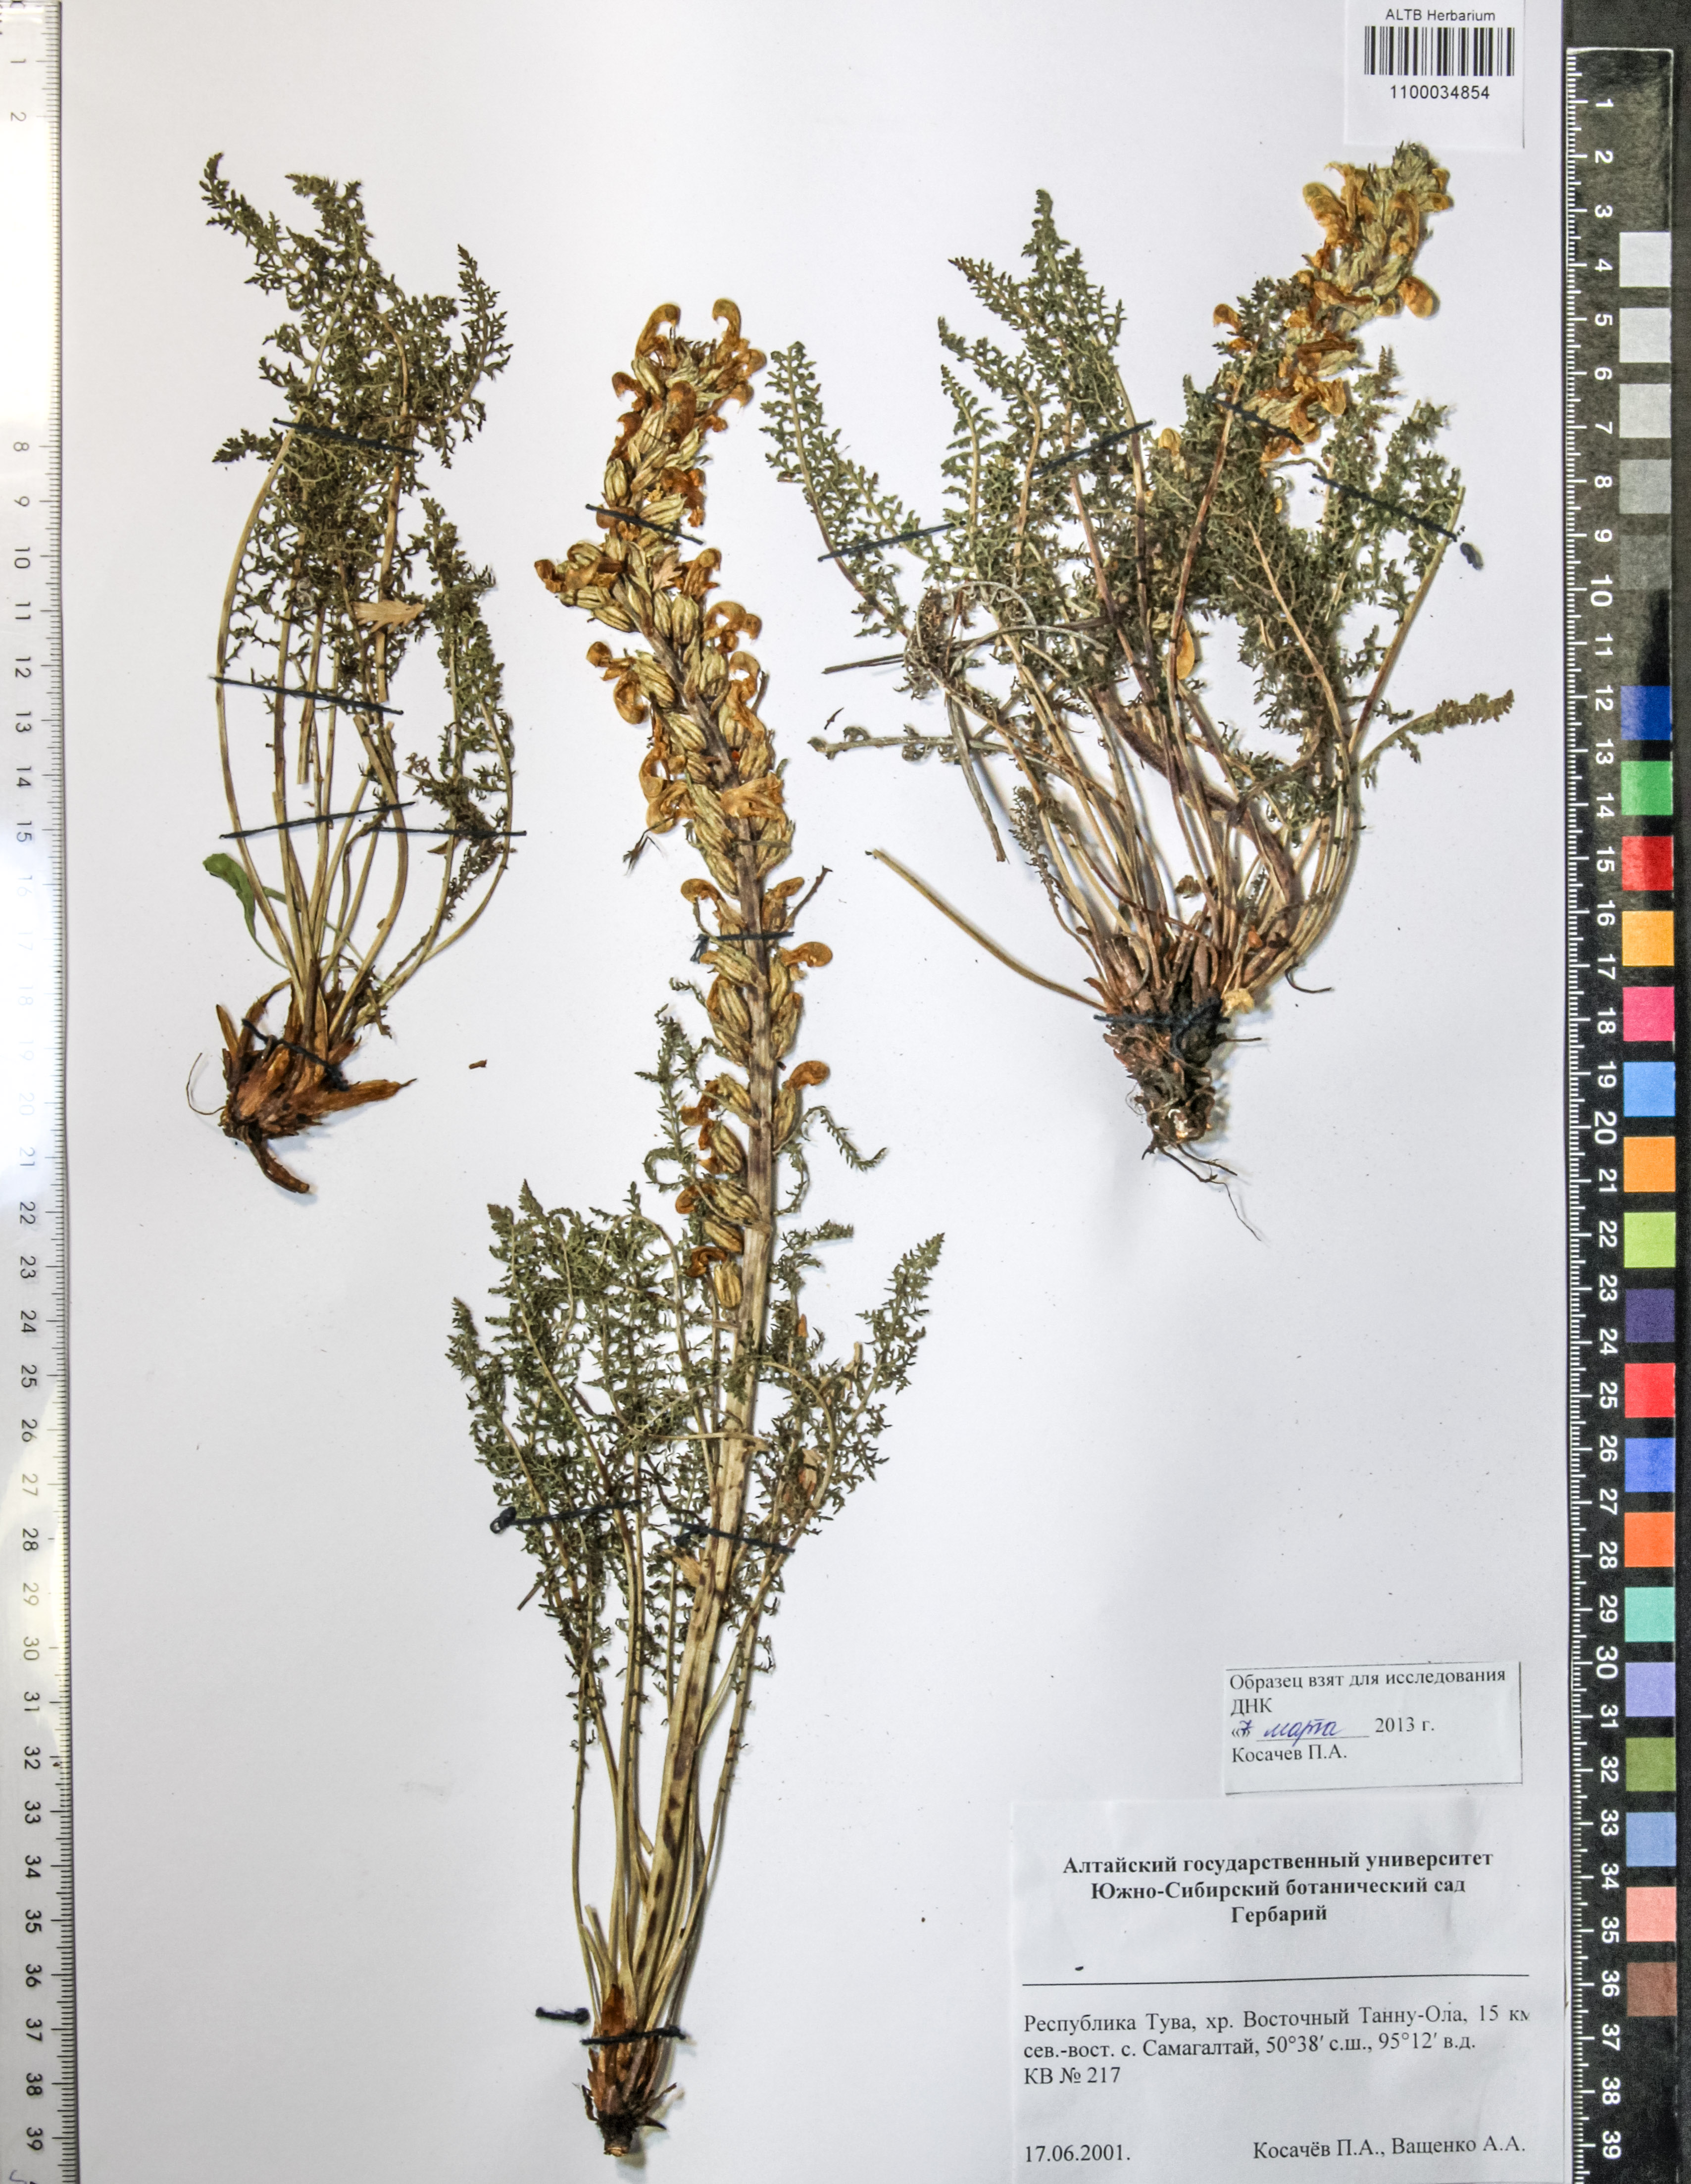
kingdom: Plantae
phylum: Tracheophyta
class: Magnoliopsida
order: Lamiales
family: Orobanchaceae
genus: Pedicularis
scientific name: Pedicularis proboscidea
